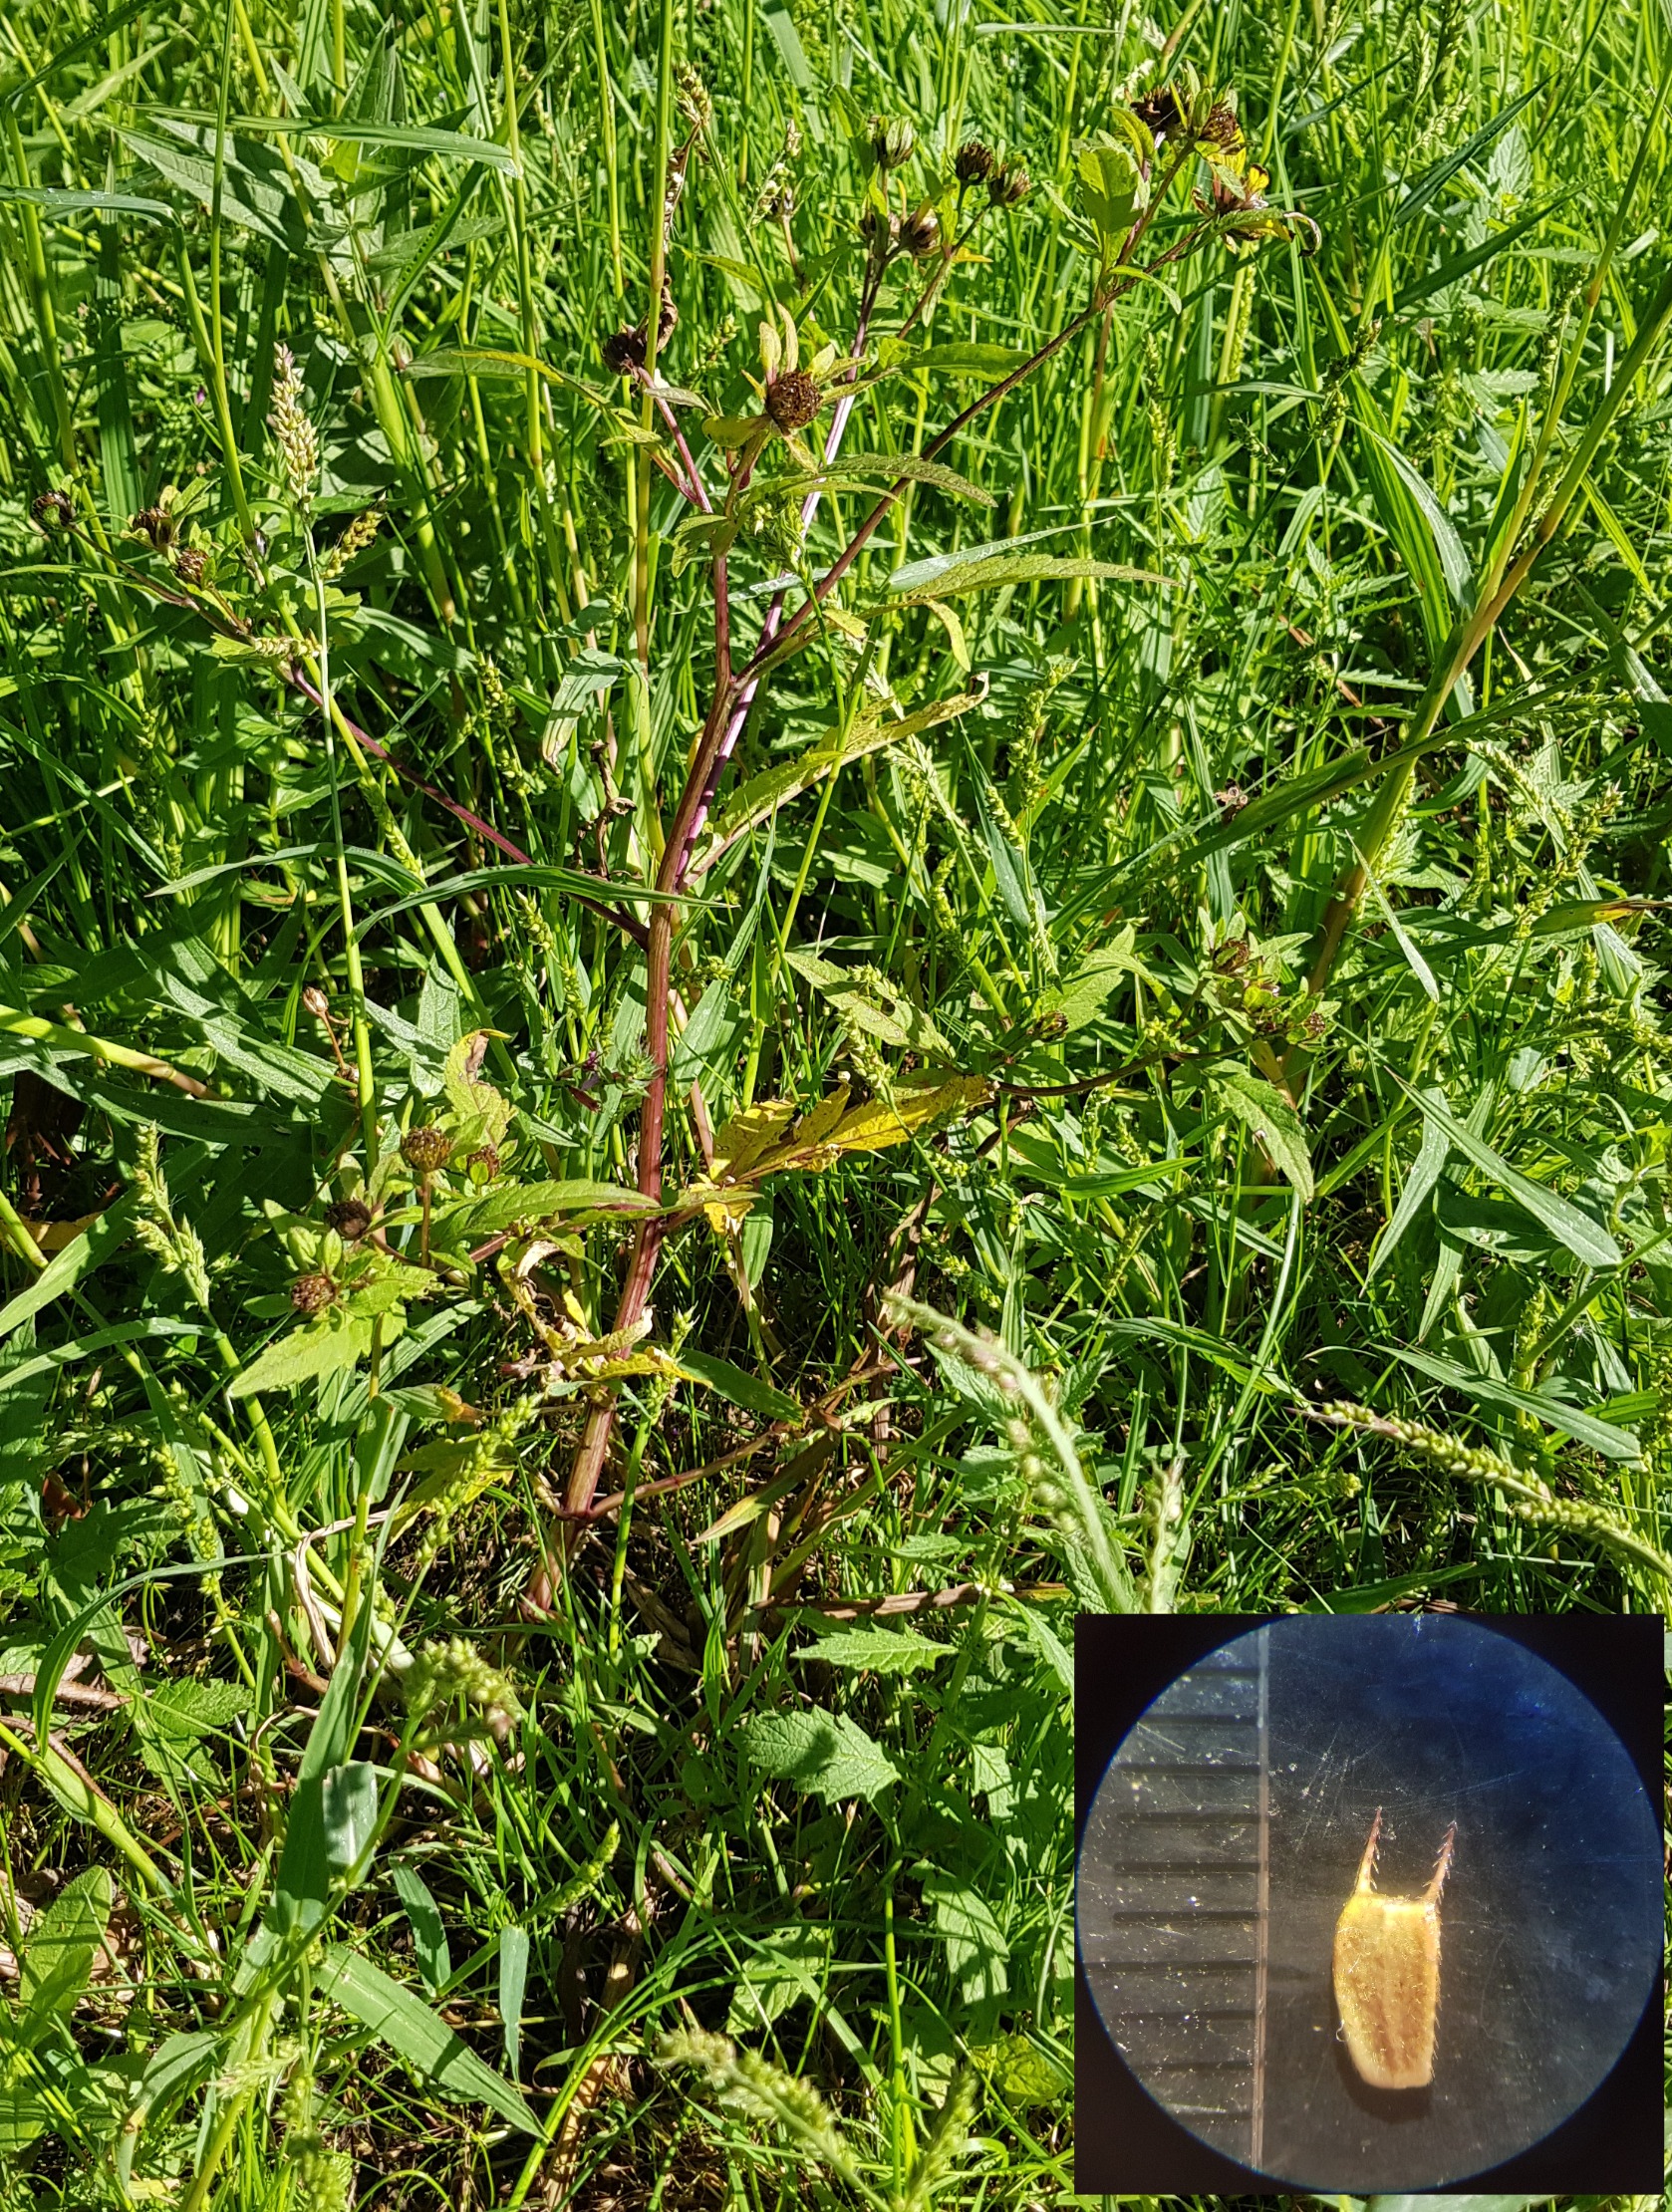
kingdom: Plantae
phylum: Tracheophyta
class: Magnoliopsida
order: Asterales
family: Asteraceae
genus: Bidens
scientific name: Bidens tripartita
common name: Fliget brøndsel
